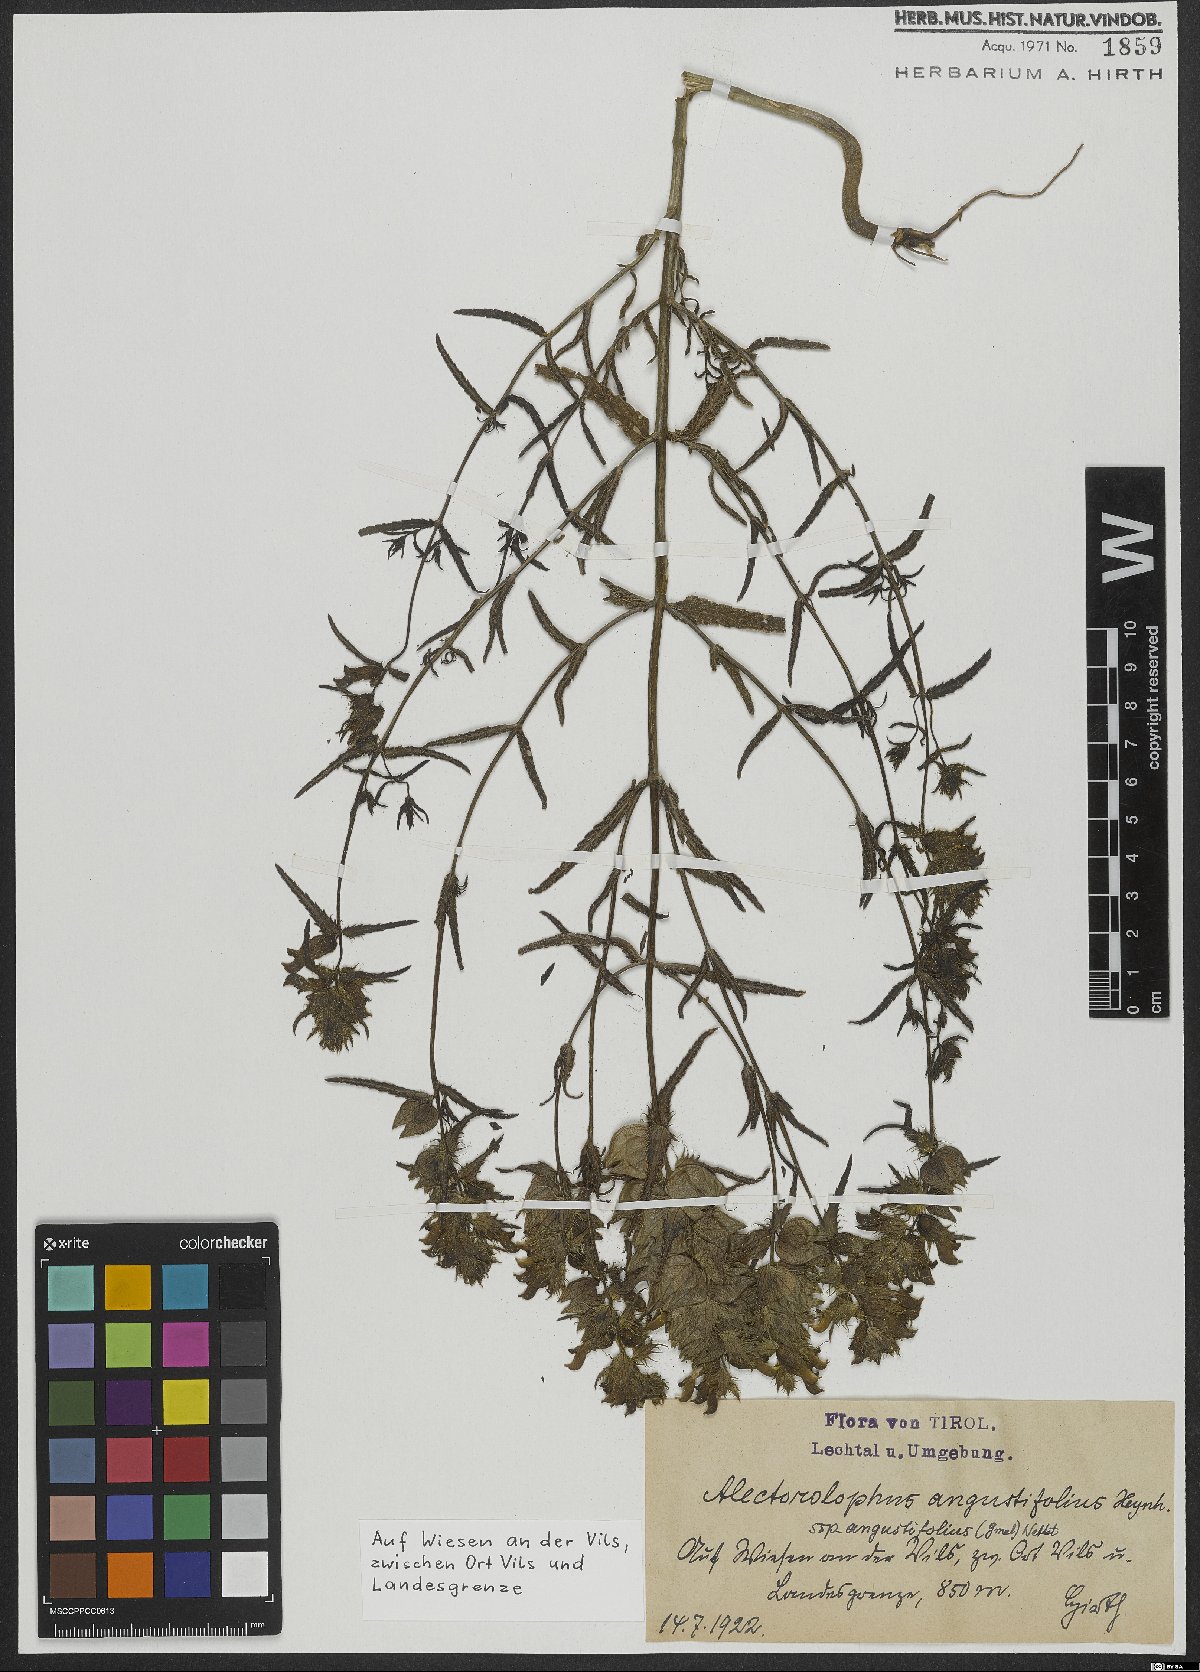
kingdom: Plantae
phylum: Tracheophyta
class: Magnoliopsida
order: Lamiales
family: Orobanchaceae
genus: Rhinanthus
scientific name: Rhinanthus glacialis
